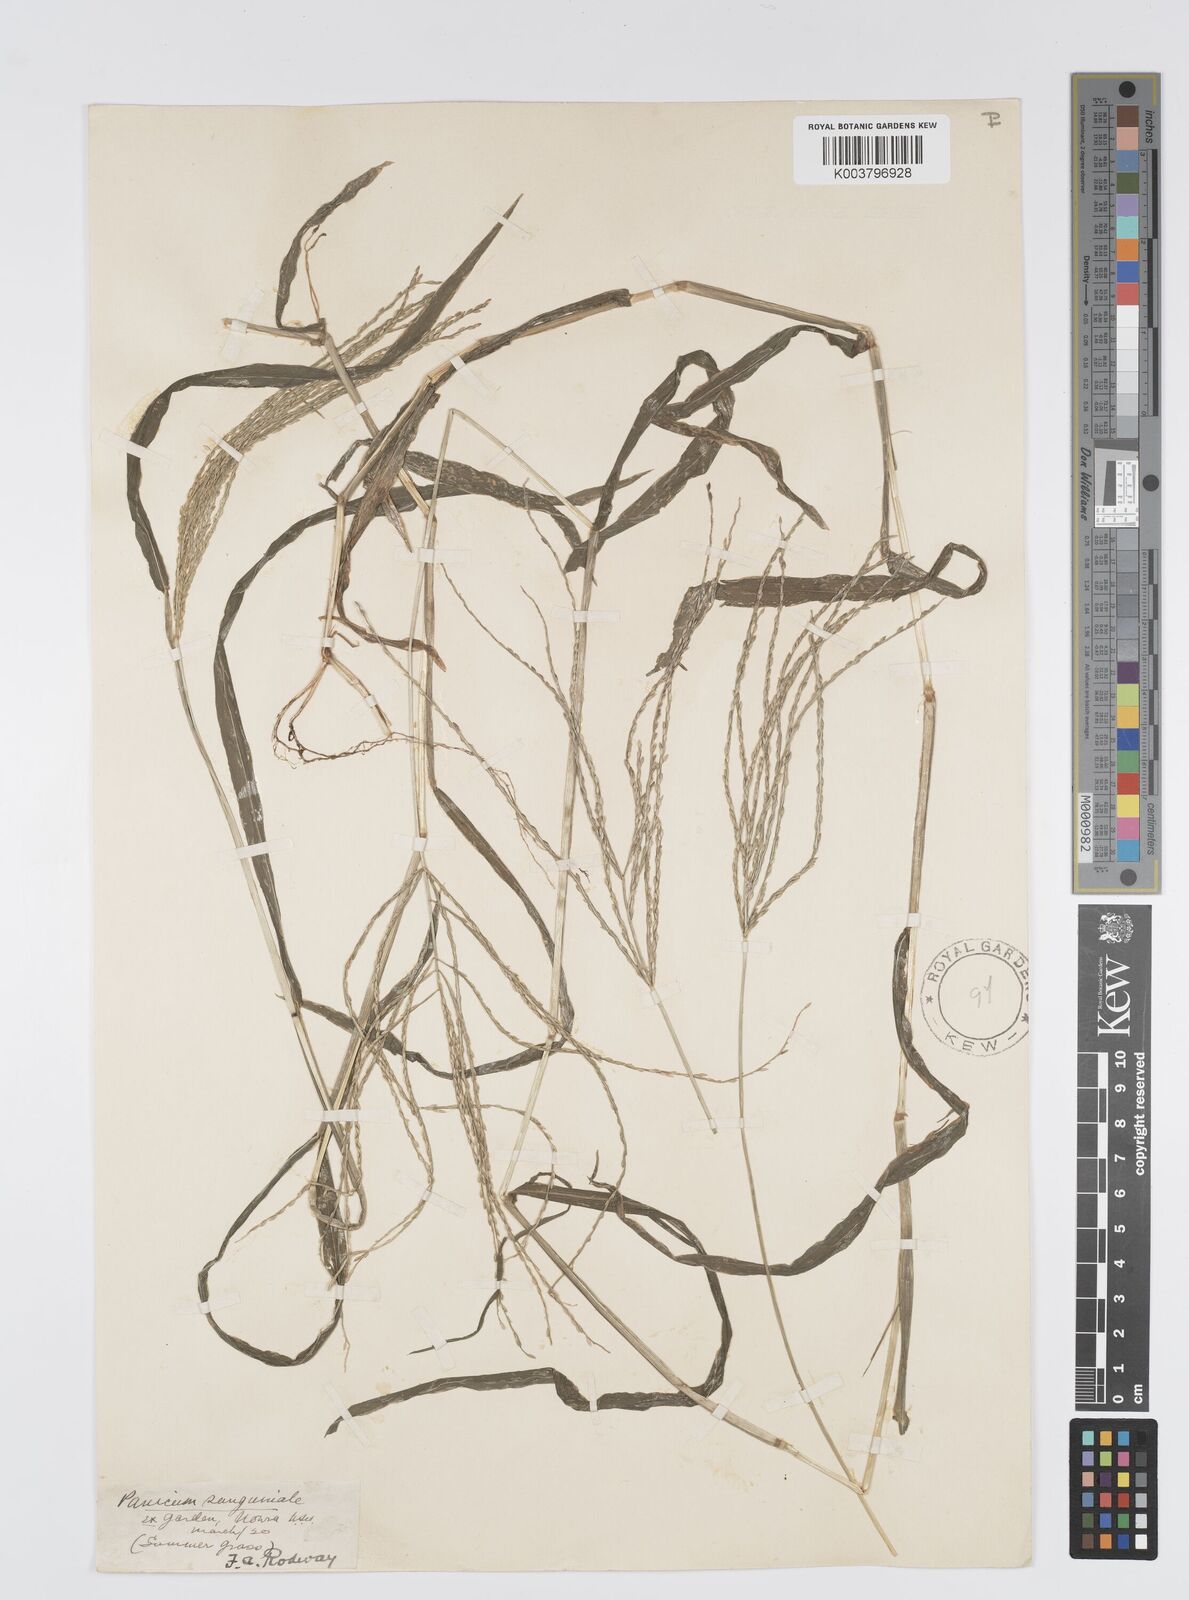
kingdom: Plantae
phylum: Tracheophyta
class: Liliopsida
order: Poales
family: Poaceae
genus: Digitaria
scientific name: Digitaria sanguinalis
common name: Hairy crabgrass
